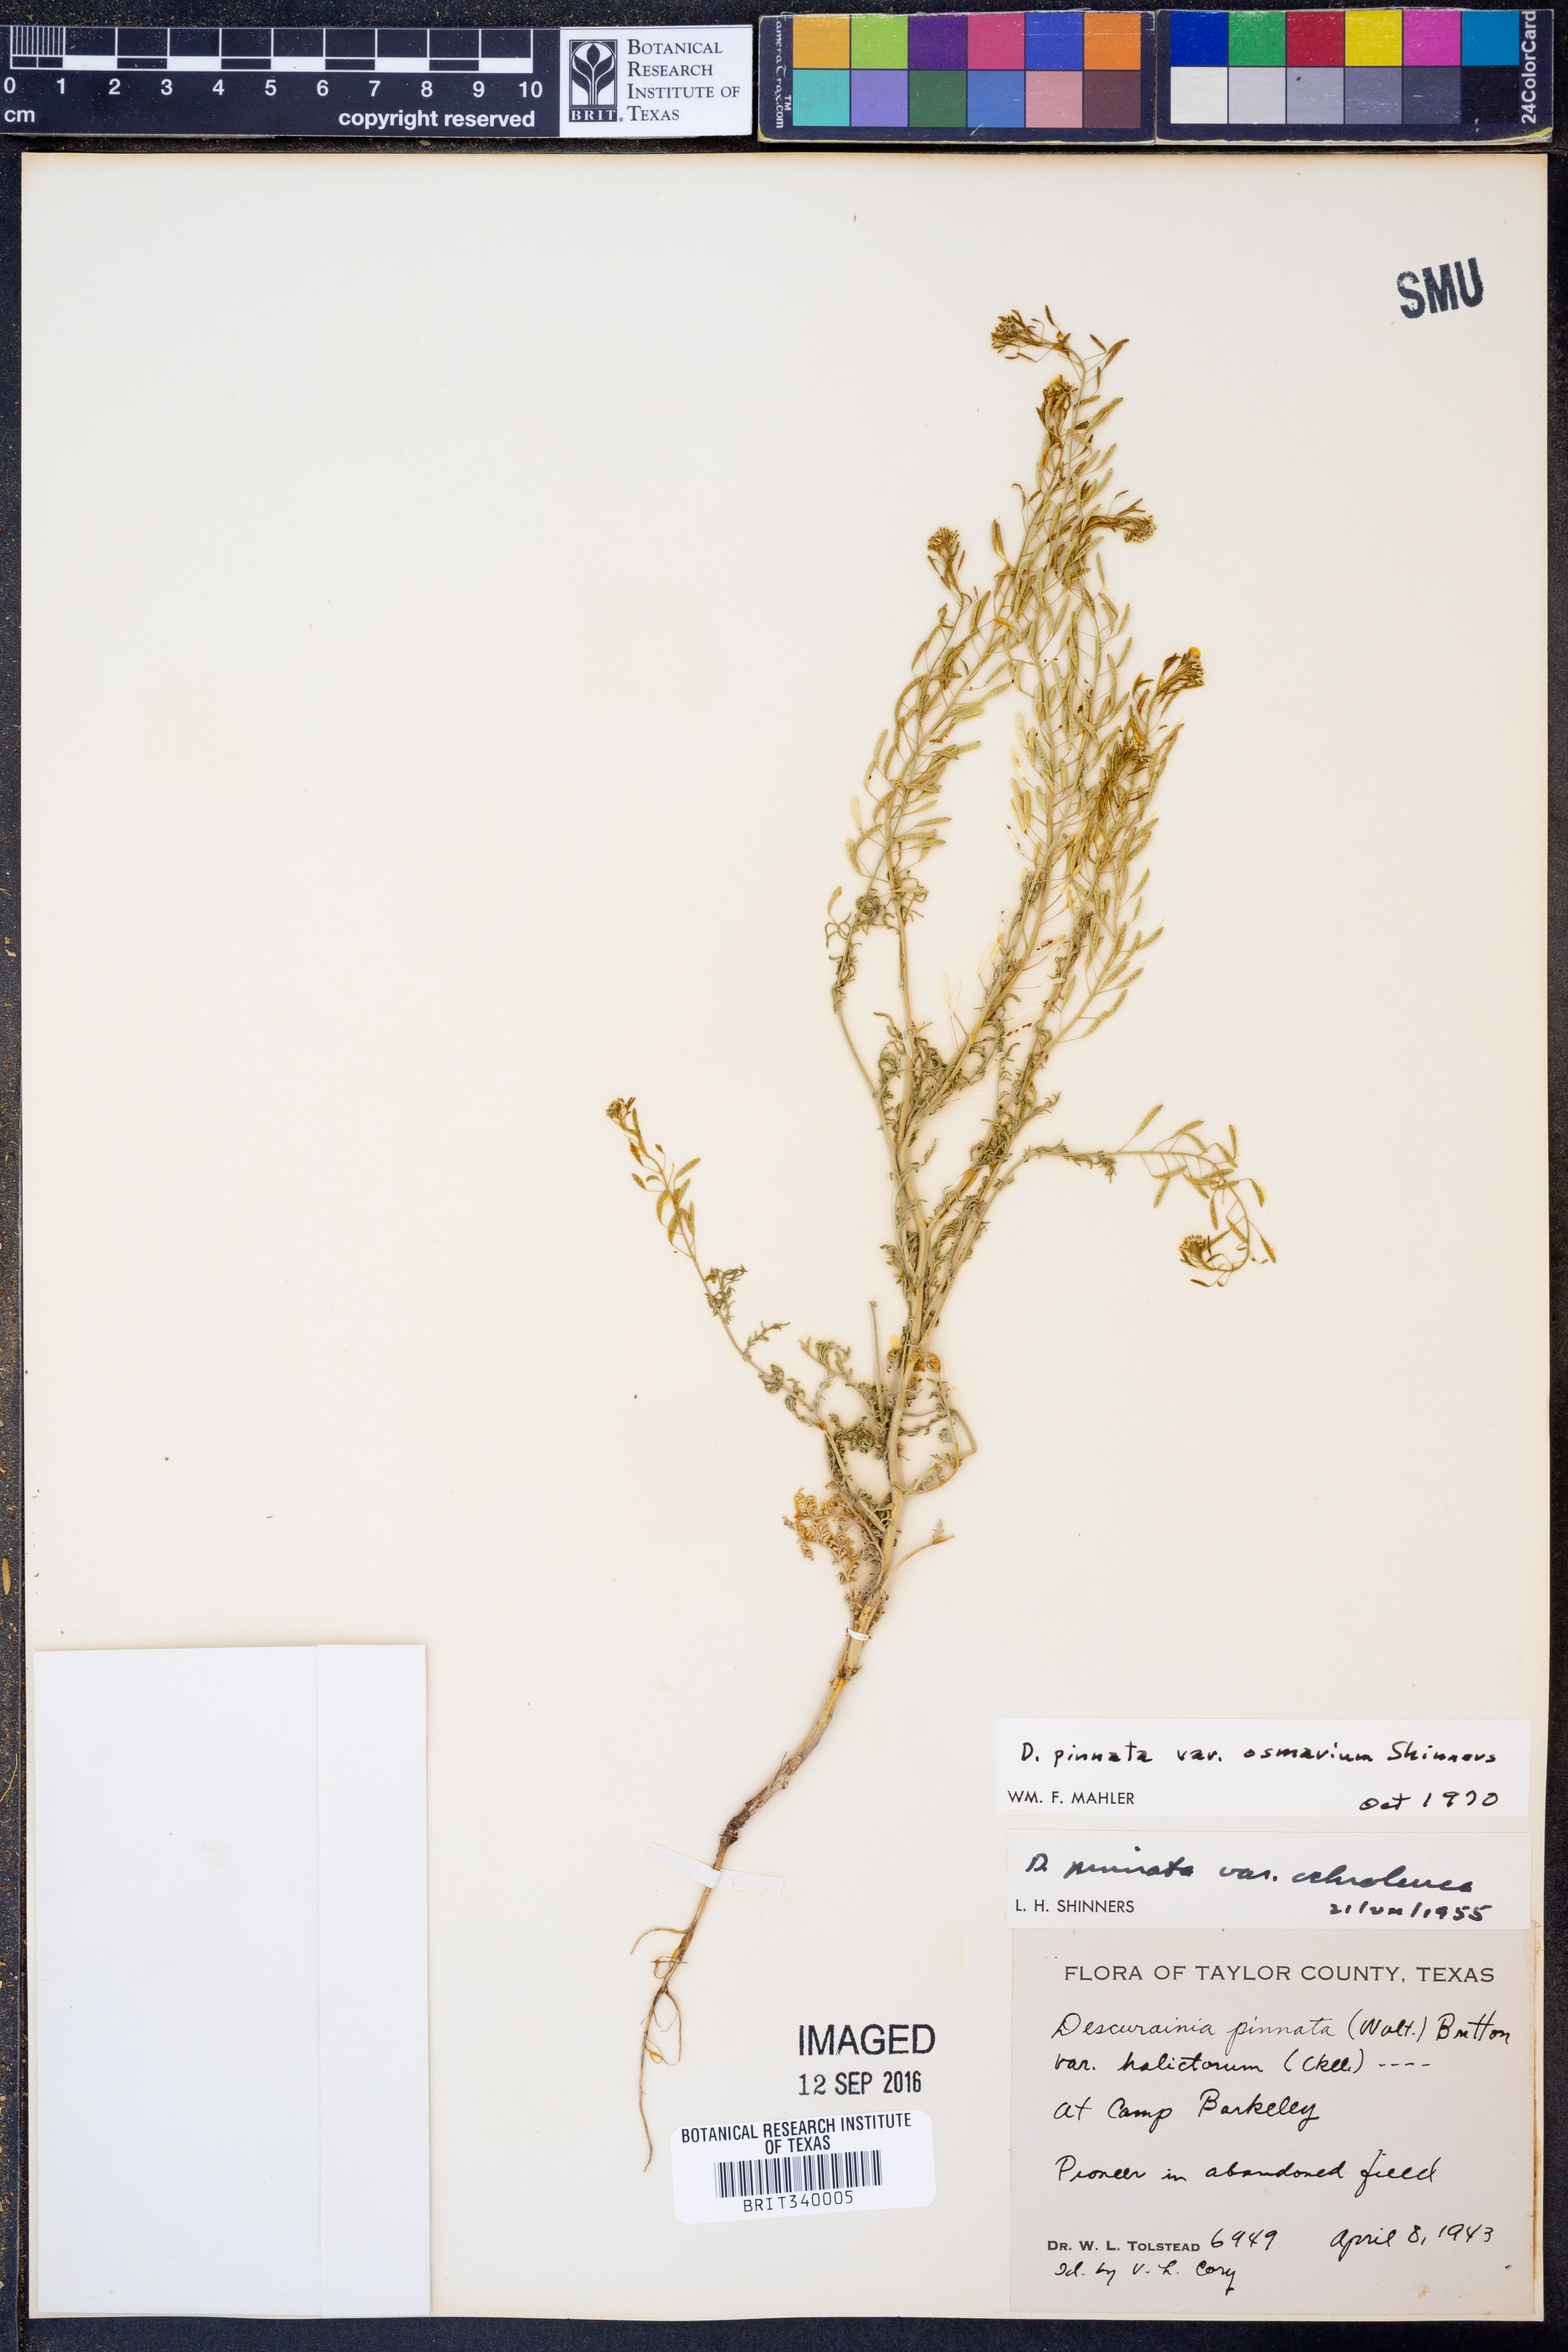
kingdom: Plantae
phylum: Tracheophyta
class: Magnoliopsida
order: Brassicales
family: Brassicaceae
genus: Descurainia
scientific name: Descurainia pinnata
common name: Western tansy mustard
